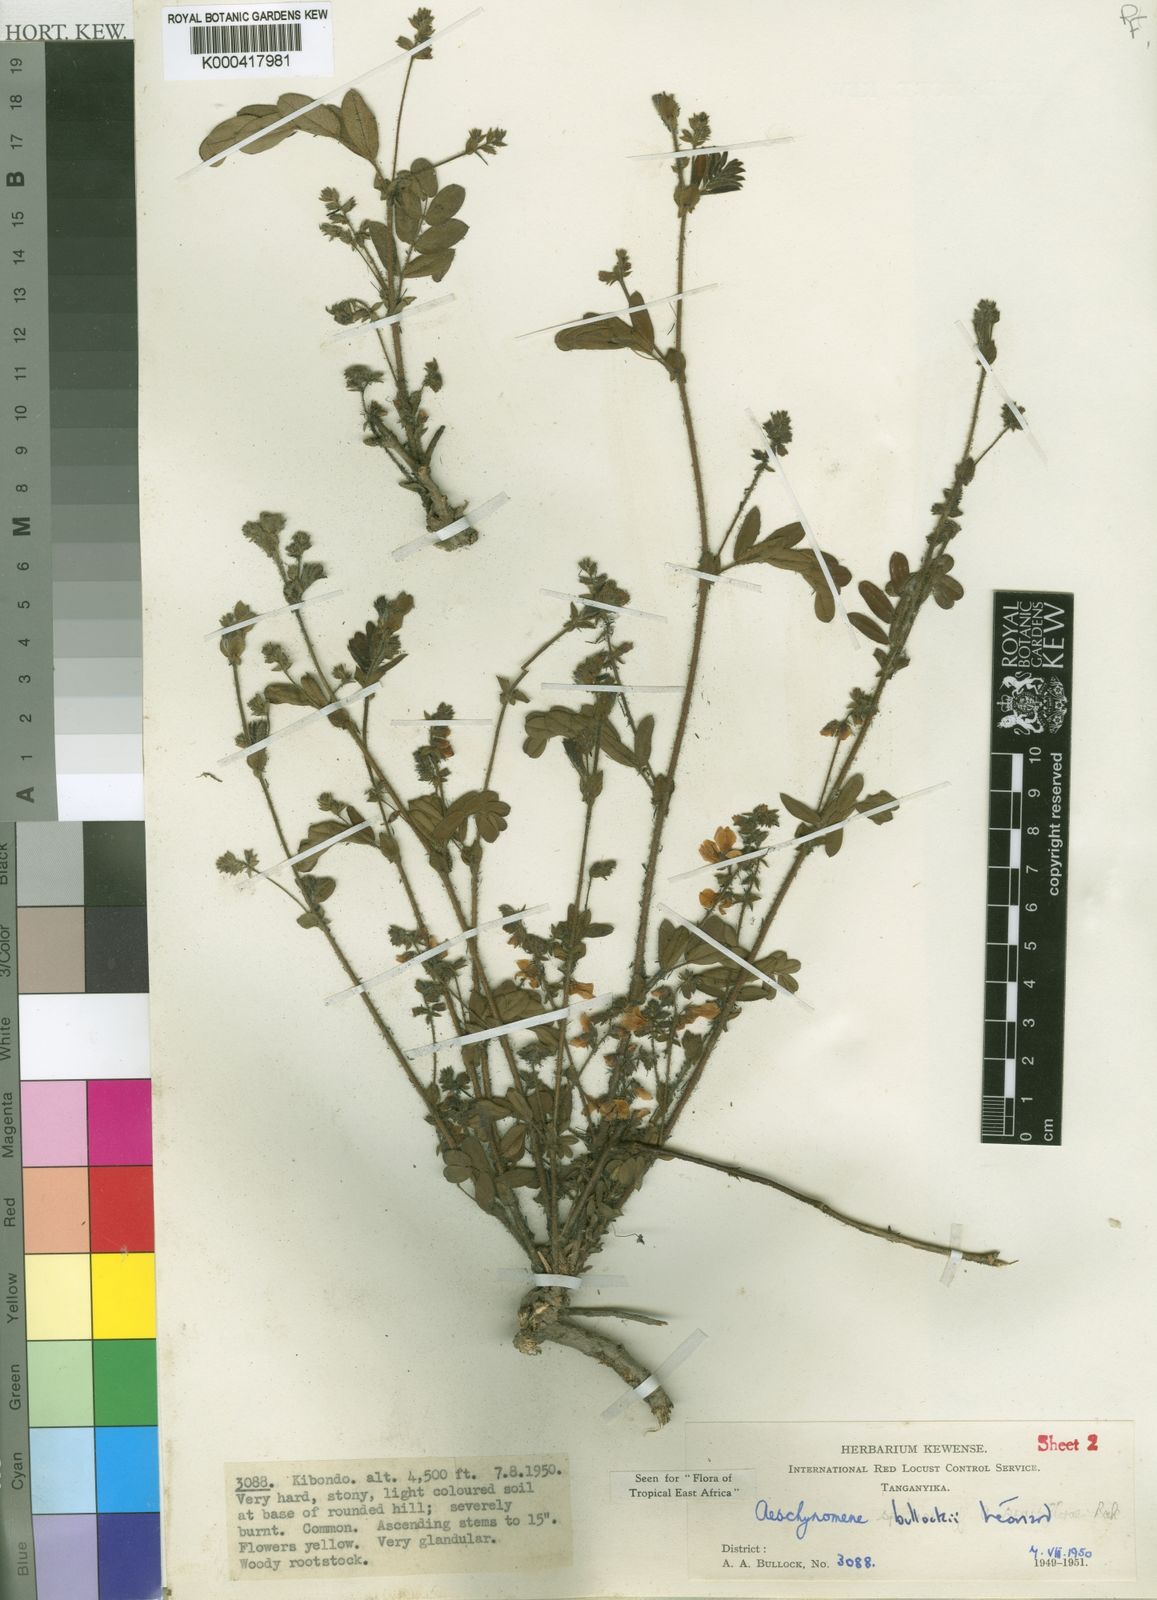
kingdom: Plantae
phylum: Tracheophyta
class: Magnoliopsida
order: Fabales
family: Fabaceae
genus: Aeschynomene
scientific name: Aeschynomene
